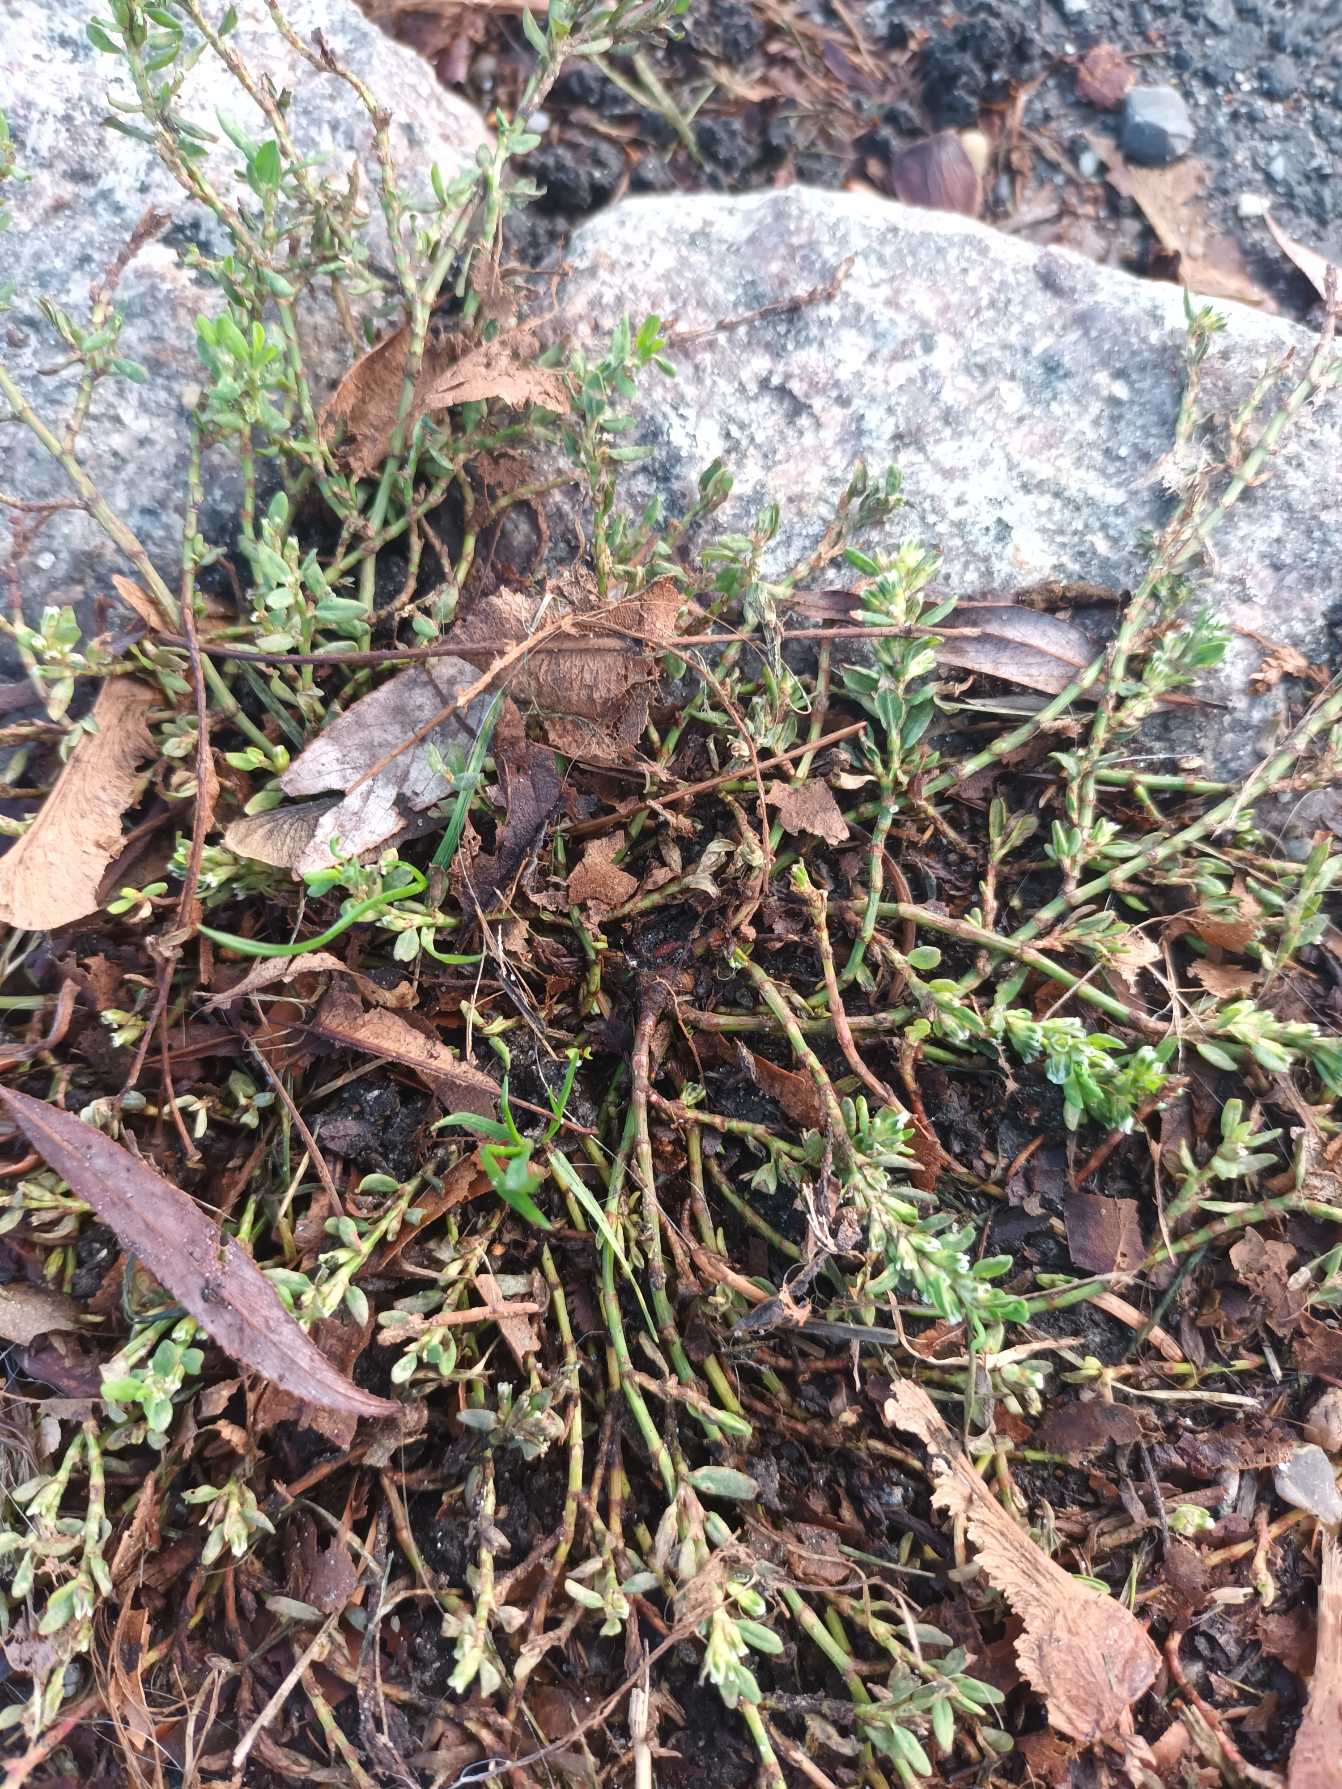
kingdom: Plantae
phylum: Tracheophyta
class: Magnoliopsida
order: Caryophyllales
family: Polygonaceae
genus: Polygonum
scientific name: Polygonum arenastrum
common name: Liggende vej-pileurt
